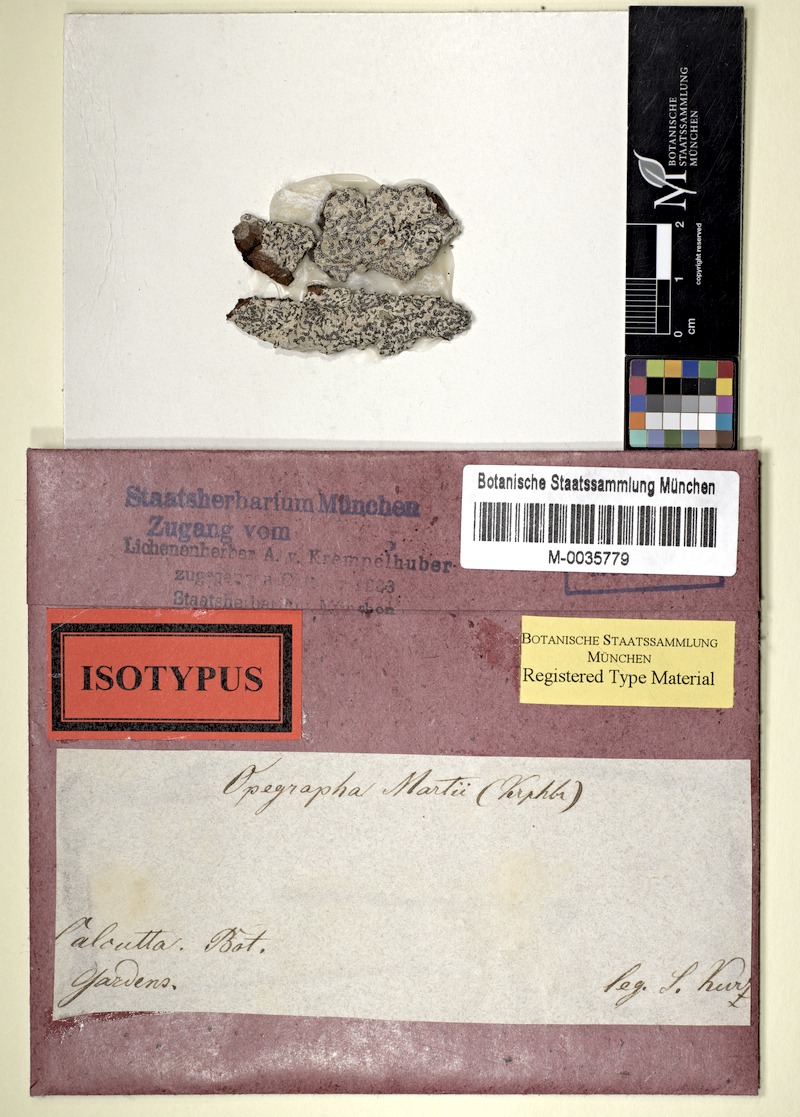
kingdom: Fungi
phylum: Ascomycota
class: Arthoniomycetes
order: Arthoniales
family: Lecanographaceae
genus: Lecanographa
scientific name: Lecanographa martii
